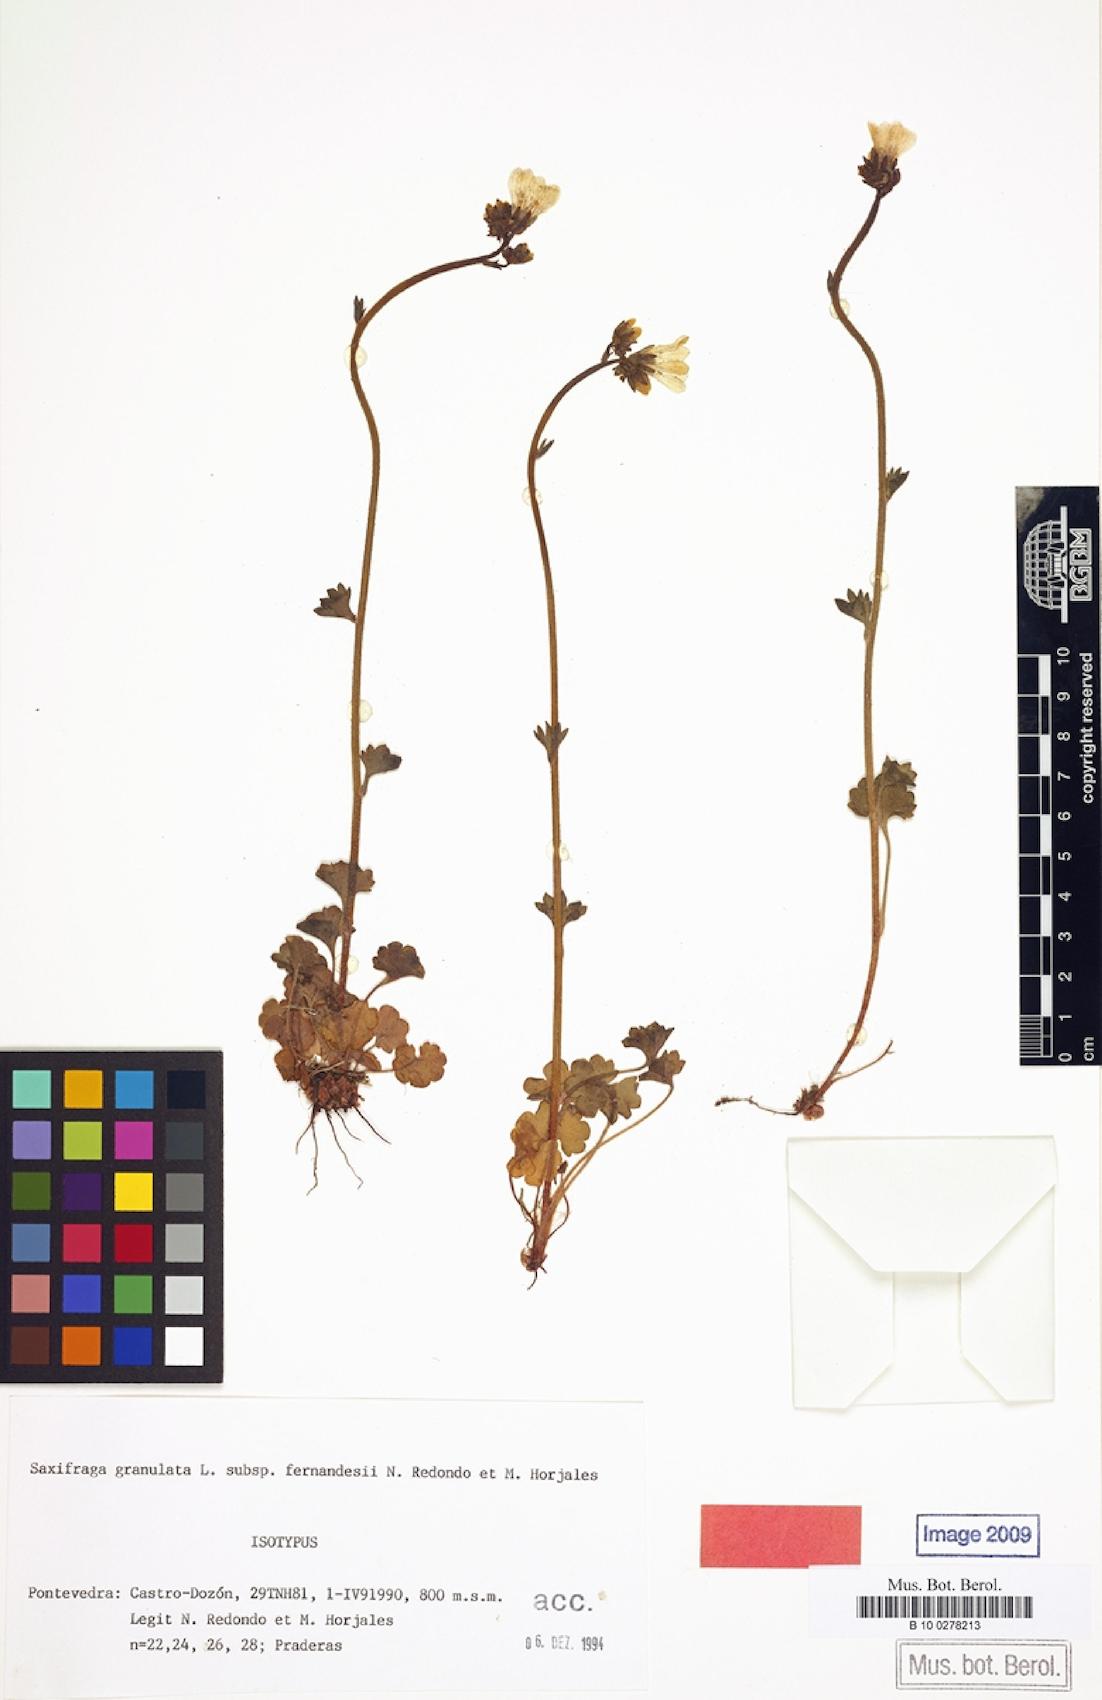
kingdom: Plantae
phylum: Tracheophyta
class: Magnoliopsida
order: Saxifragales
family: Saxifragaceae
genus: Saxifraga
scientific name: Saxifraga granulata
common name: Meadow saxifrage
